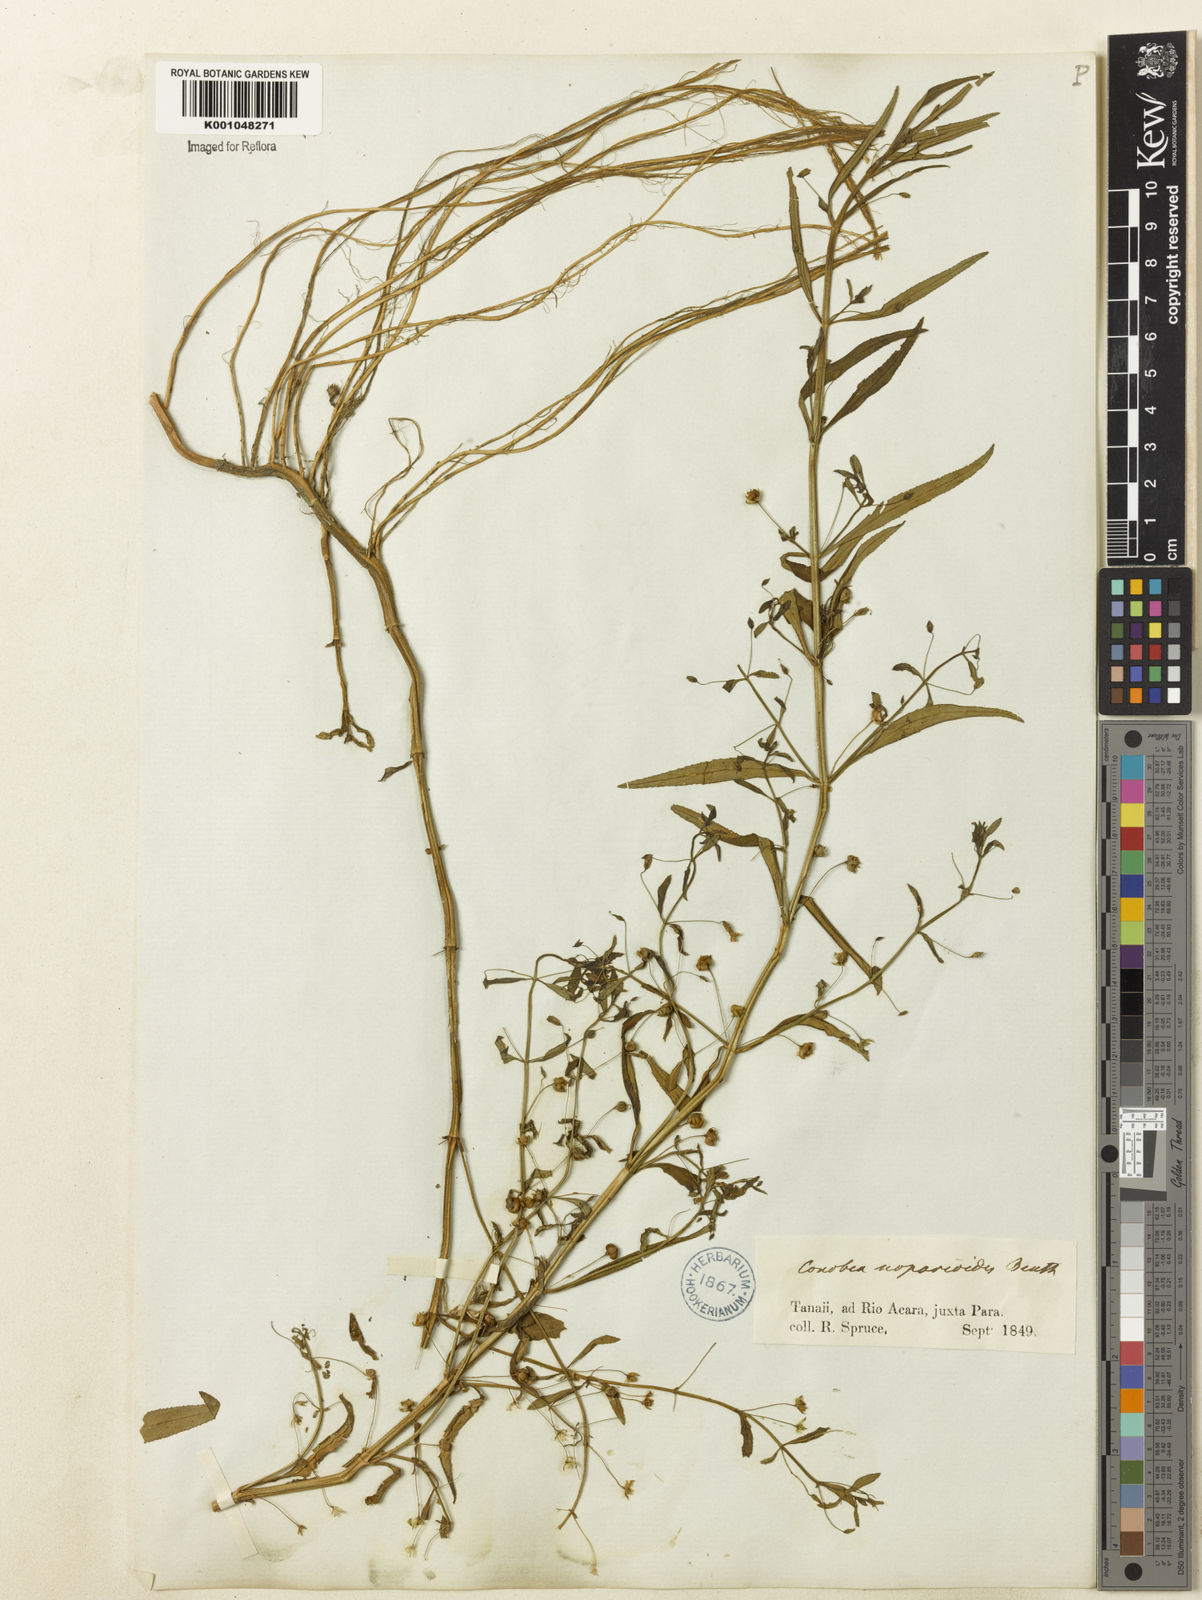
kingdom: Plantae
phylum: Tracheophyta
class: Magnoliopsida
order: Lamiales
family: Plantaginaceae
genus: Conobea
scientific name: Conobea scoparioides
